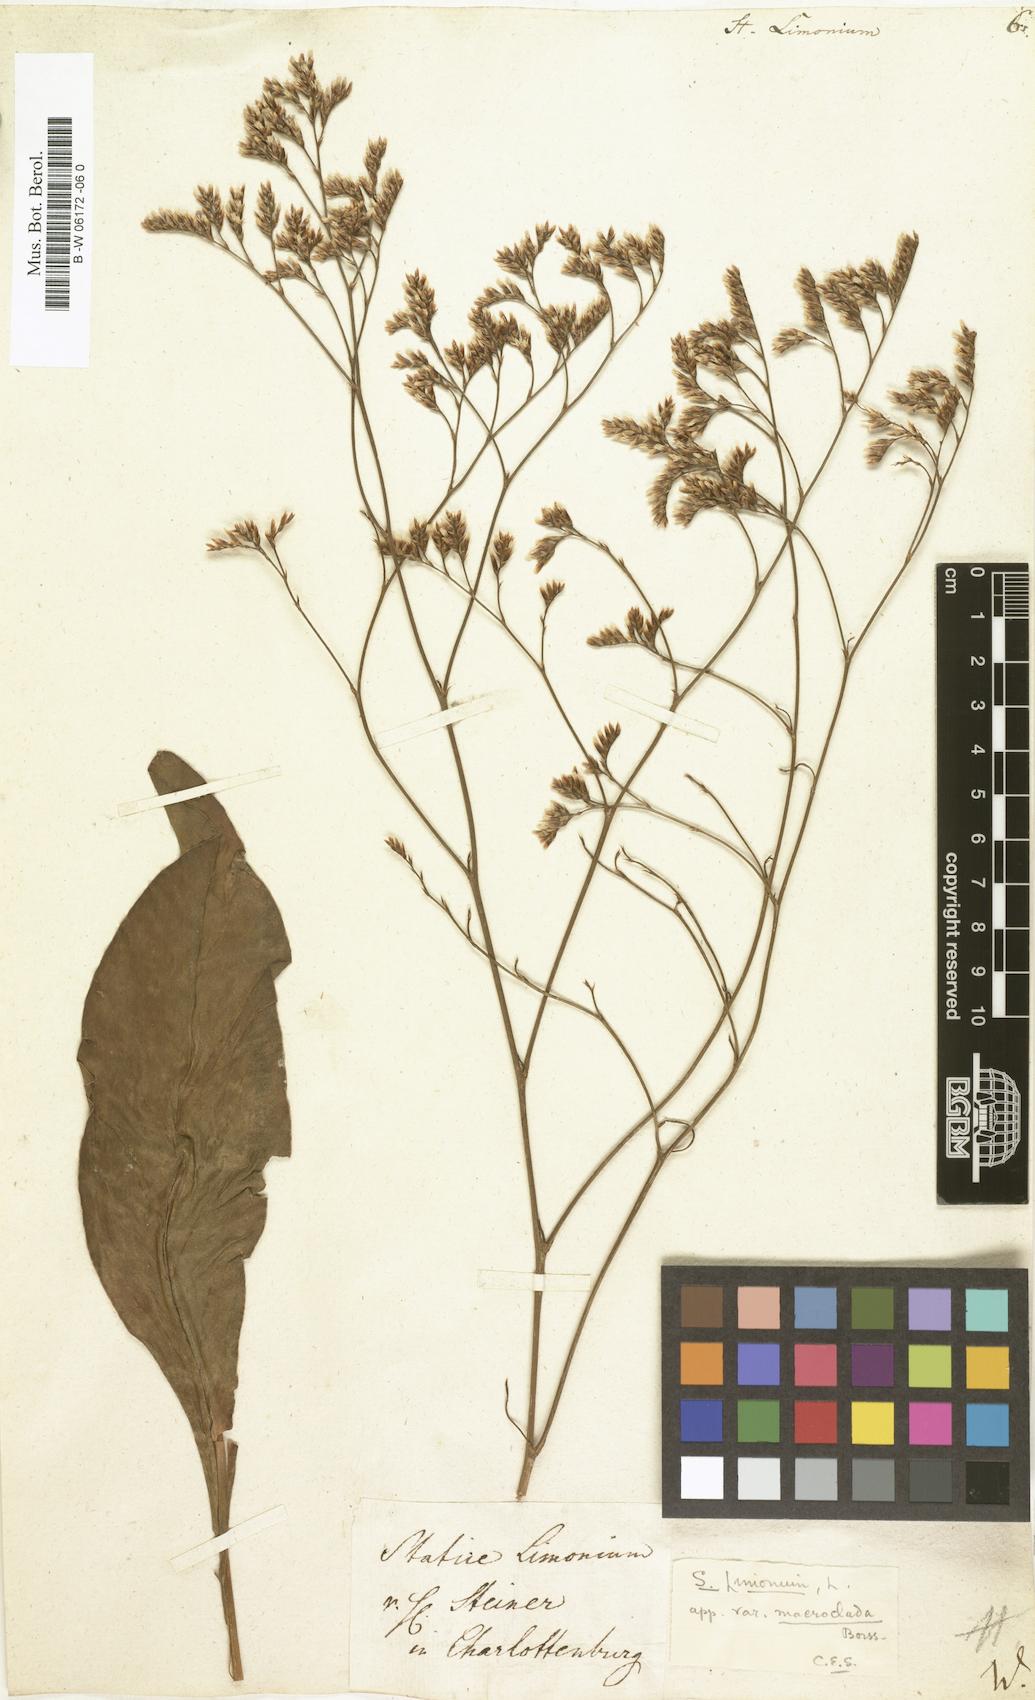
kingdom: Plantae
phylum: Tracheophyta
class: Magnoliopsida
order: Caryophyllales
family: Plumbaginaceae
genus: Limonium
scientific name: Limonium vulgare
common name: Common sea-lavender
